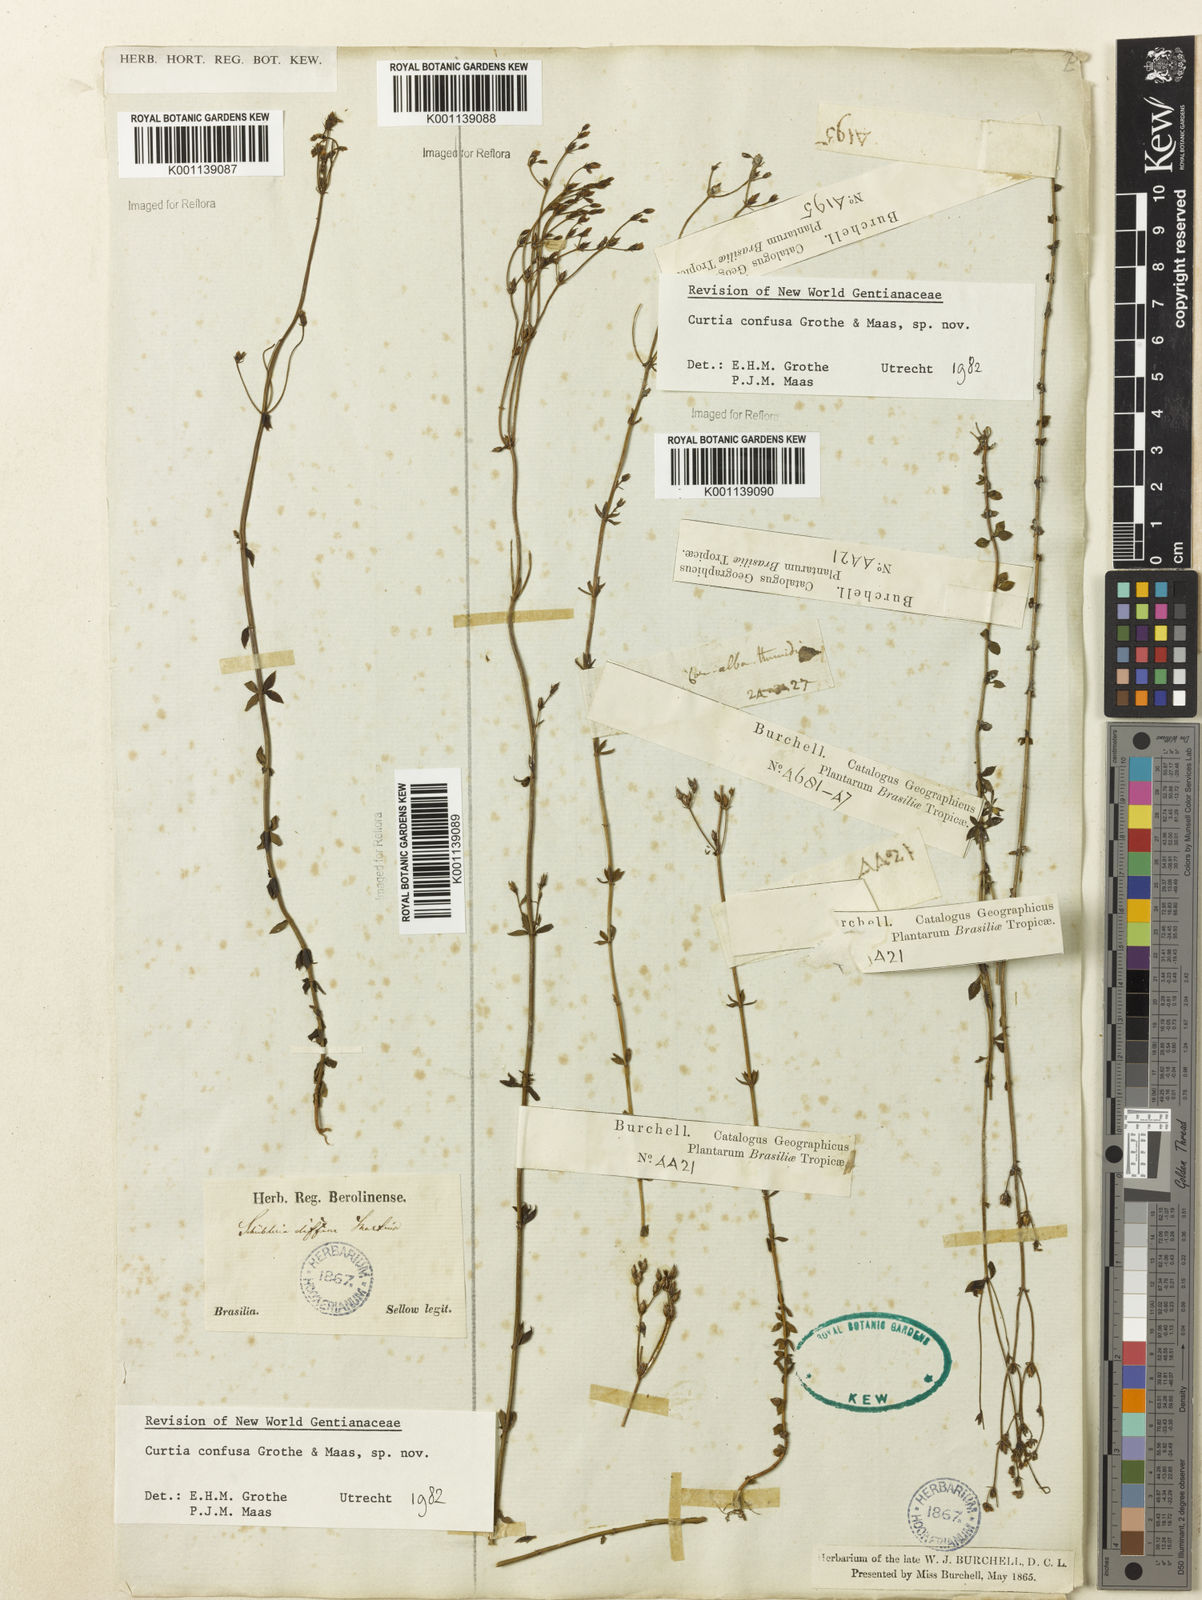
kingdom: Plantae
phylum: Tracheophyta
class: Magnoliopsida
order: Gentianales
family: Gentianaceae
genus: Curtia
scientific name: Curtia conferta
